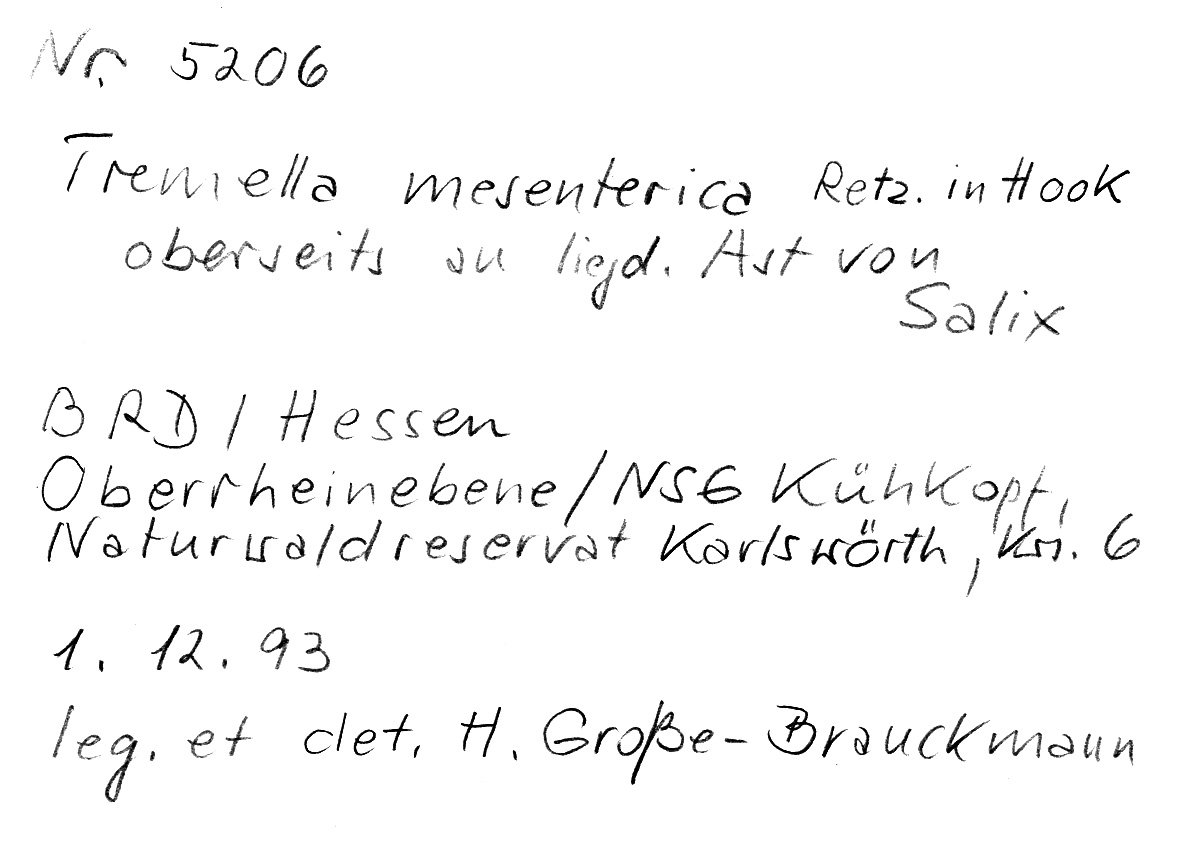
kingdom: Fungi
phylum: Basidiomycota
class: Tremellomycetes
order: Tremellales
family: Tremellaceae
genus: Tremella
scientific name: Tremella mesenterica
